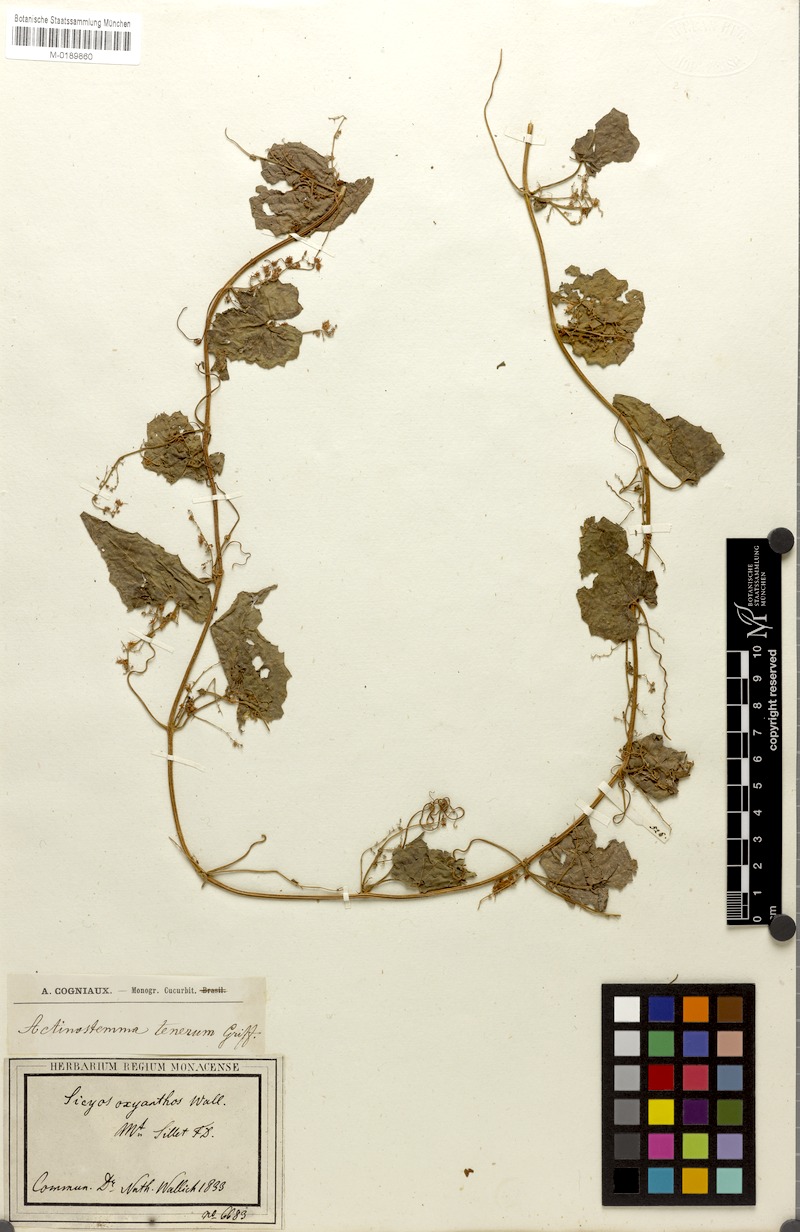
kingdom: Plantae
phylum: Tracheophyta
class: Magnoliopsida
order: Cucurbitales
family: Cucurbitaceae
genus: Actinostemma
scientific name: Actinostemma tenerum
